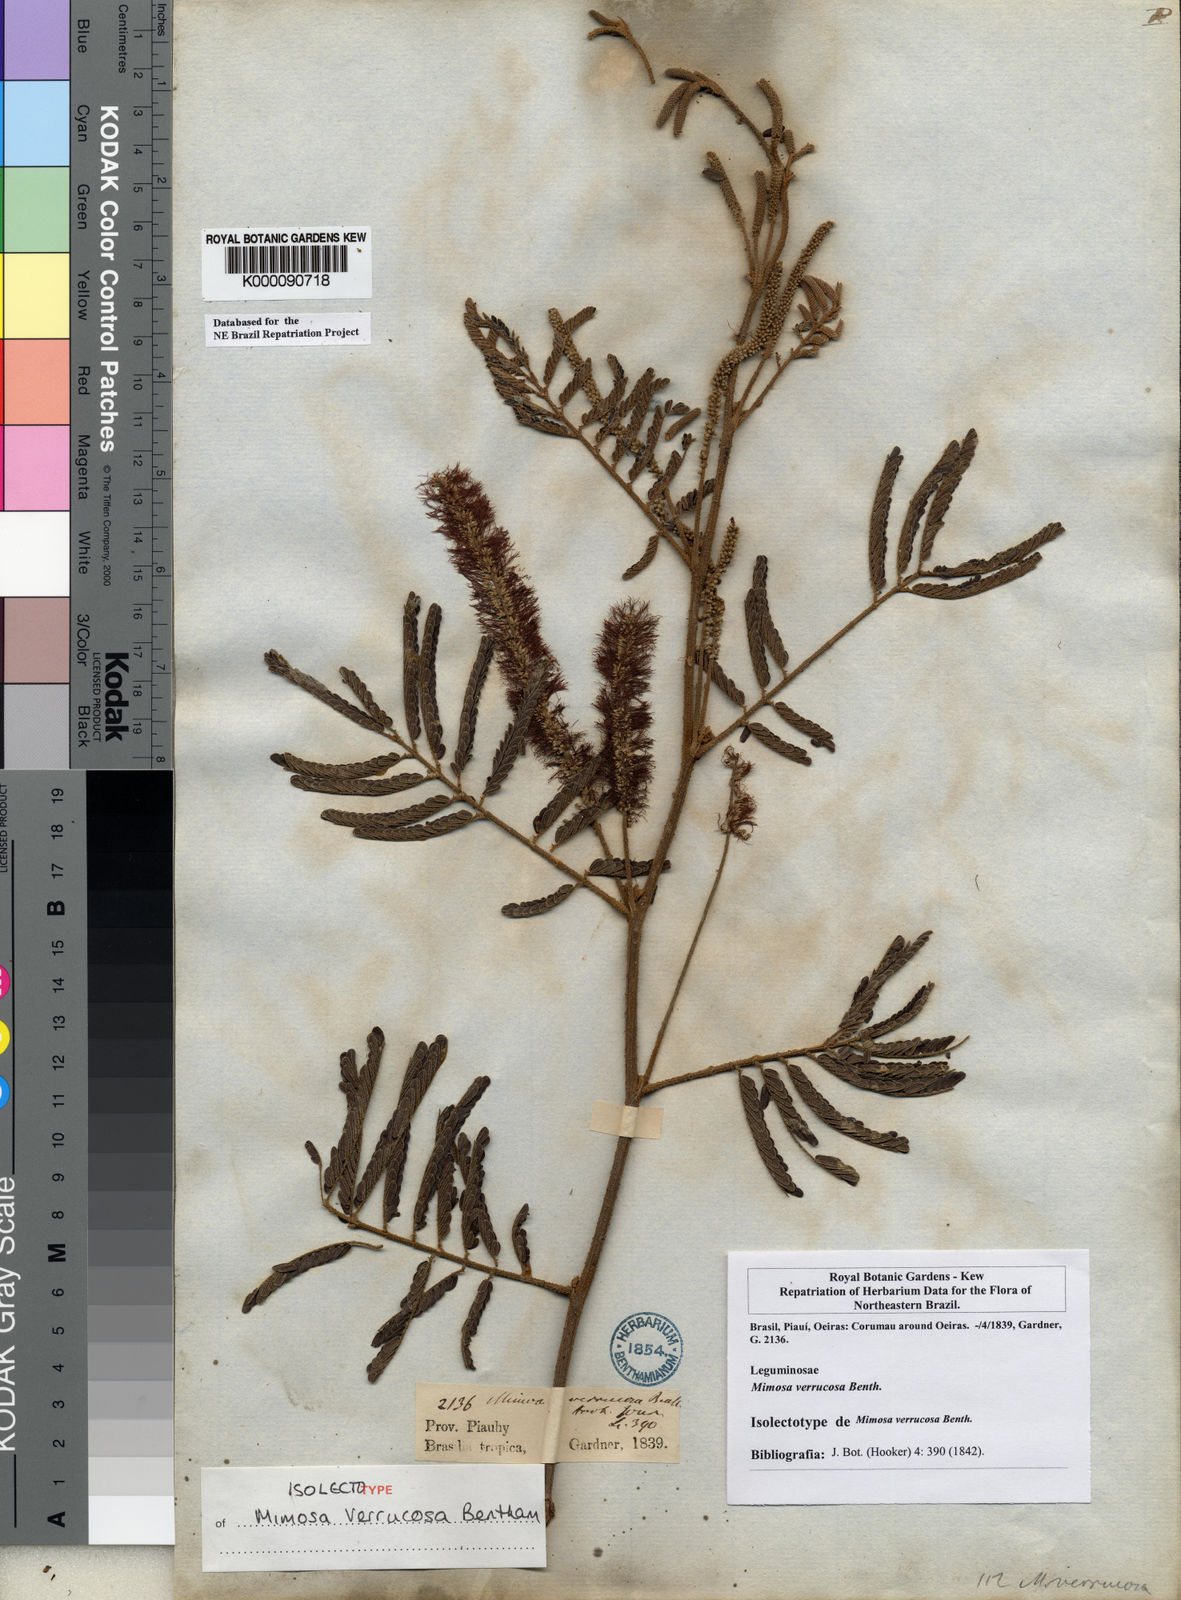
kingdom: Plantae
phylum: Tracheophyta
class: Magnoliopsida
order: Fabales
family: Fabaceae
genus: Mimosa
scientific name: Mimosa verrucosa
